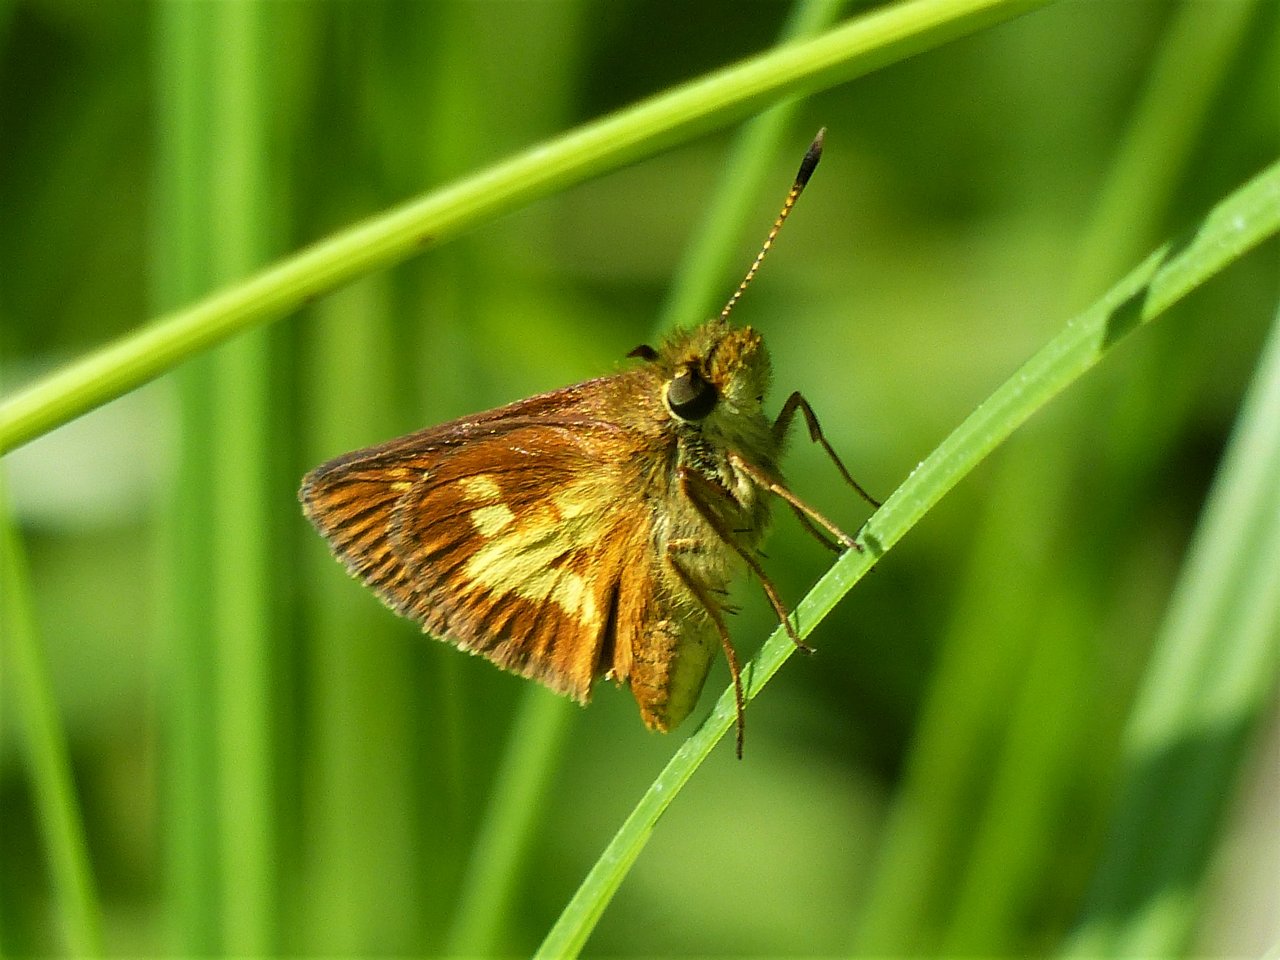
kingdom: Animalia
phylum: Arthropoda
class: Insecta
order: Lepidoptera
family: Hesperiidae
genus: Poanes
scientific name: Poanes massasoit
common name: Mulberry Wing
